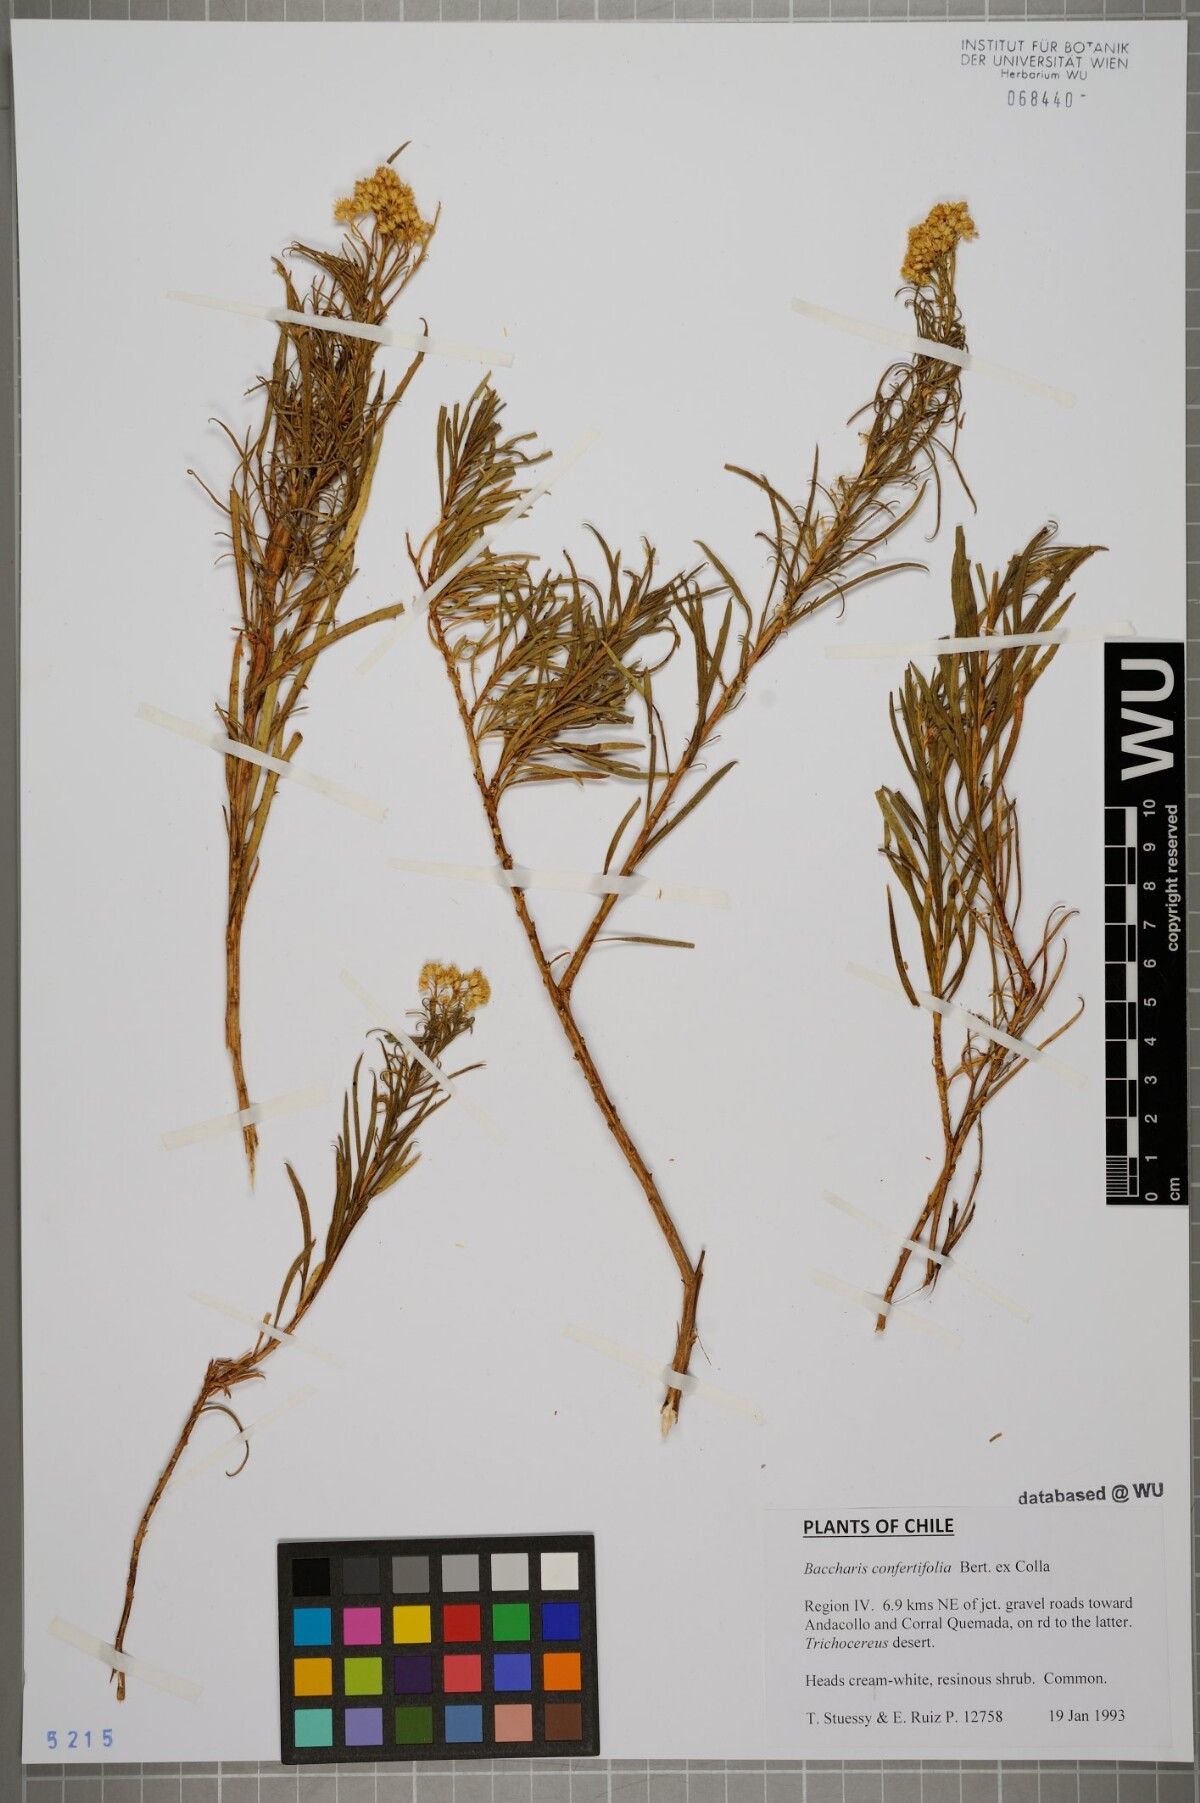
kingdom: Plantae
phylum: Tracheophyta
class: Magnoliopsida
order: Asterales
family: Asteraceae
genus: Baccharis
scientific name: Baccharis salicifolia
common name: Sticky baccharis
